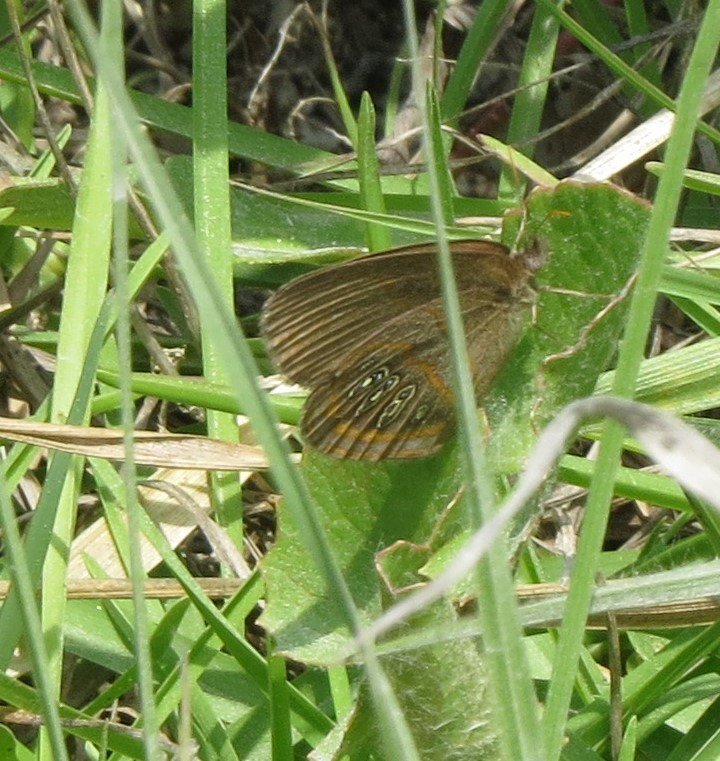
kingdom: Animalia
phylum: Arthropoda
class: Insecta
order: Lepidoptera
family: Nymphalidae
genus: Euptychia
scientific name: Euptychia phocion
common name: Georgia Satyr
